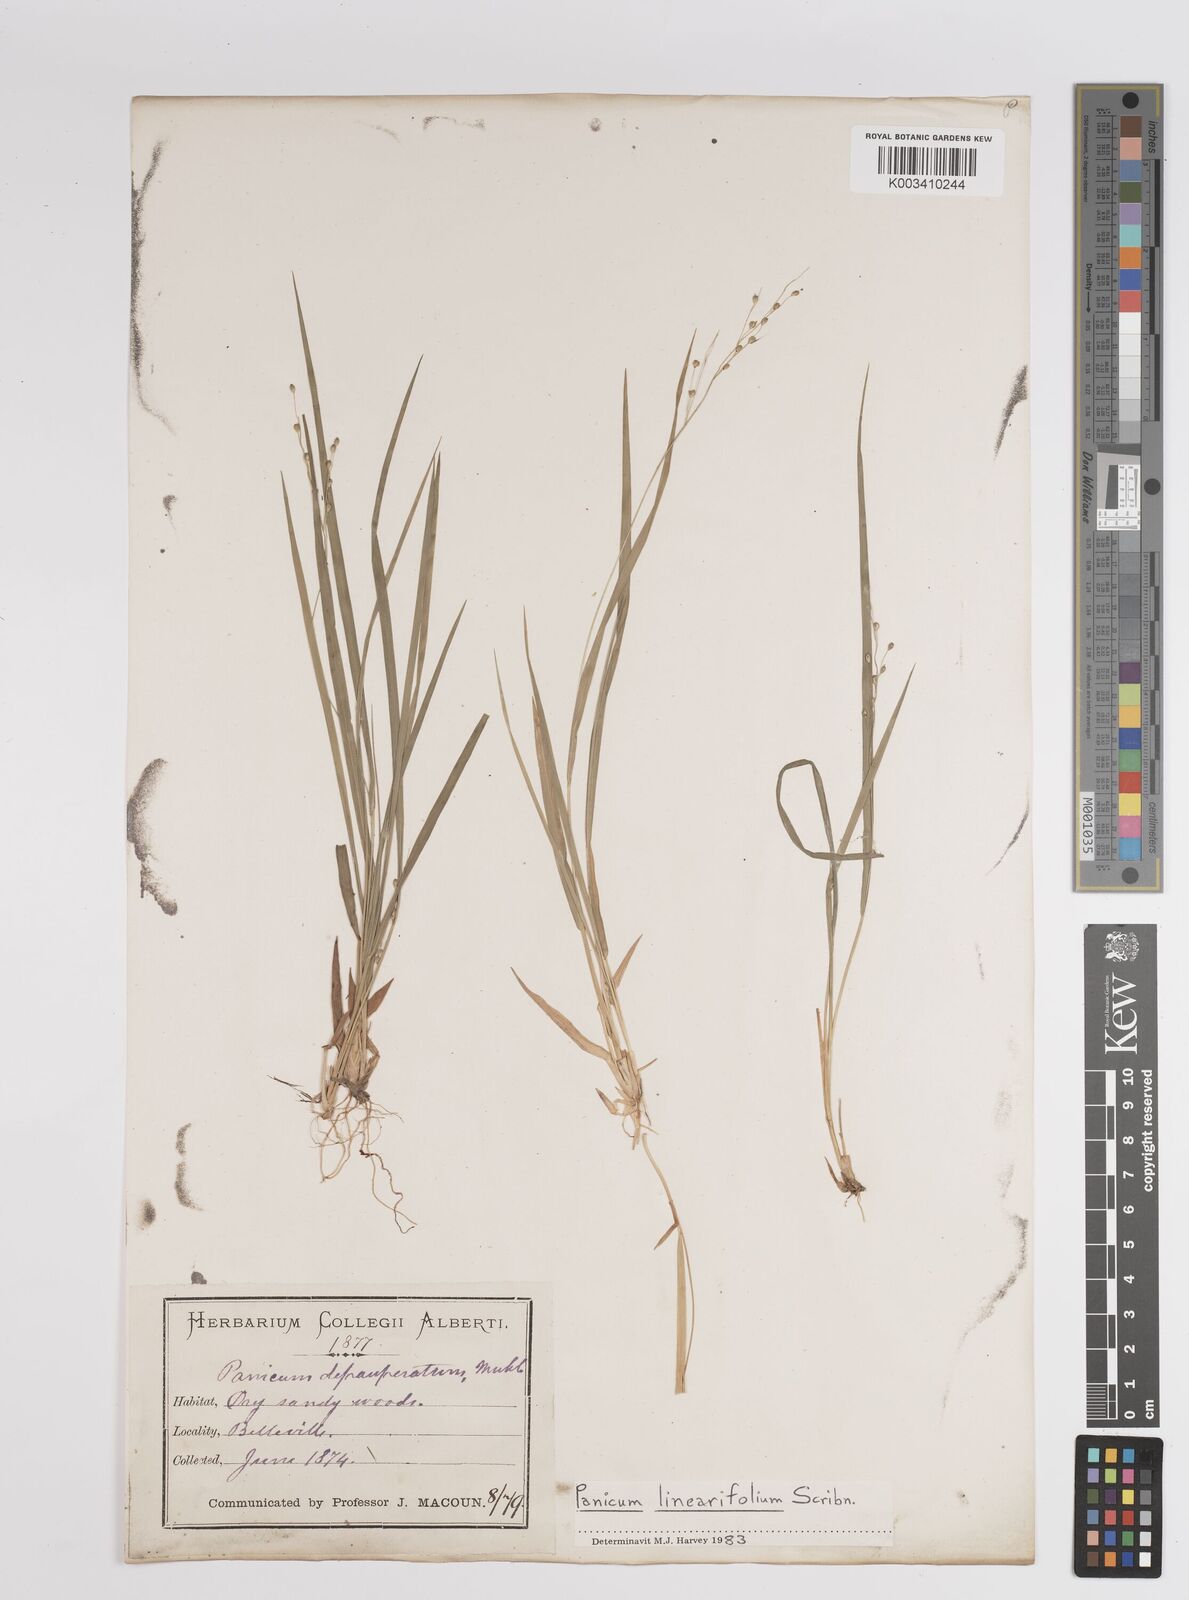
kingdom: Plantae
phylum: Tracheophyta
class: Liliopsida
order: Poales
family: Poaceae
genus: Dichanthelium
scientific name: Dichanthelium linearifolium
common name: Linear-leaved panicgrass
